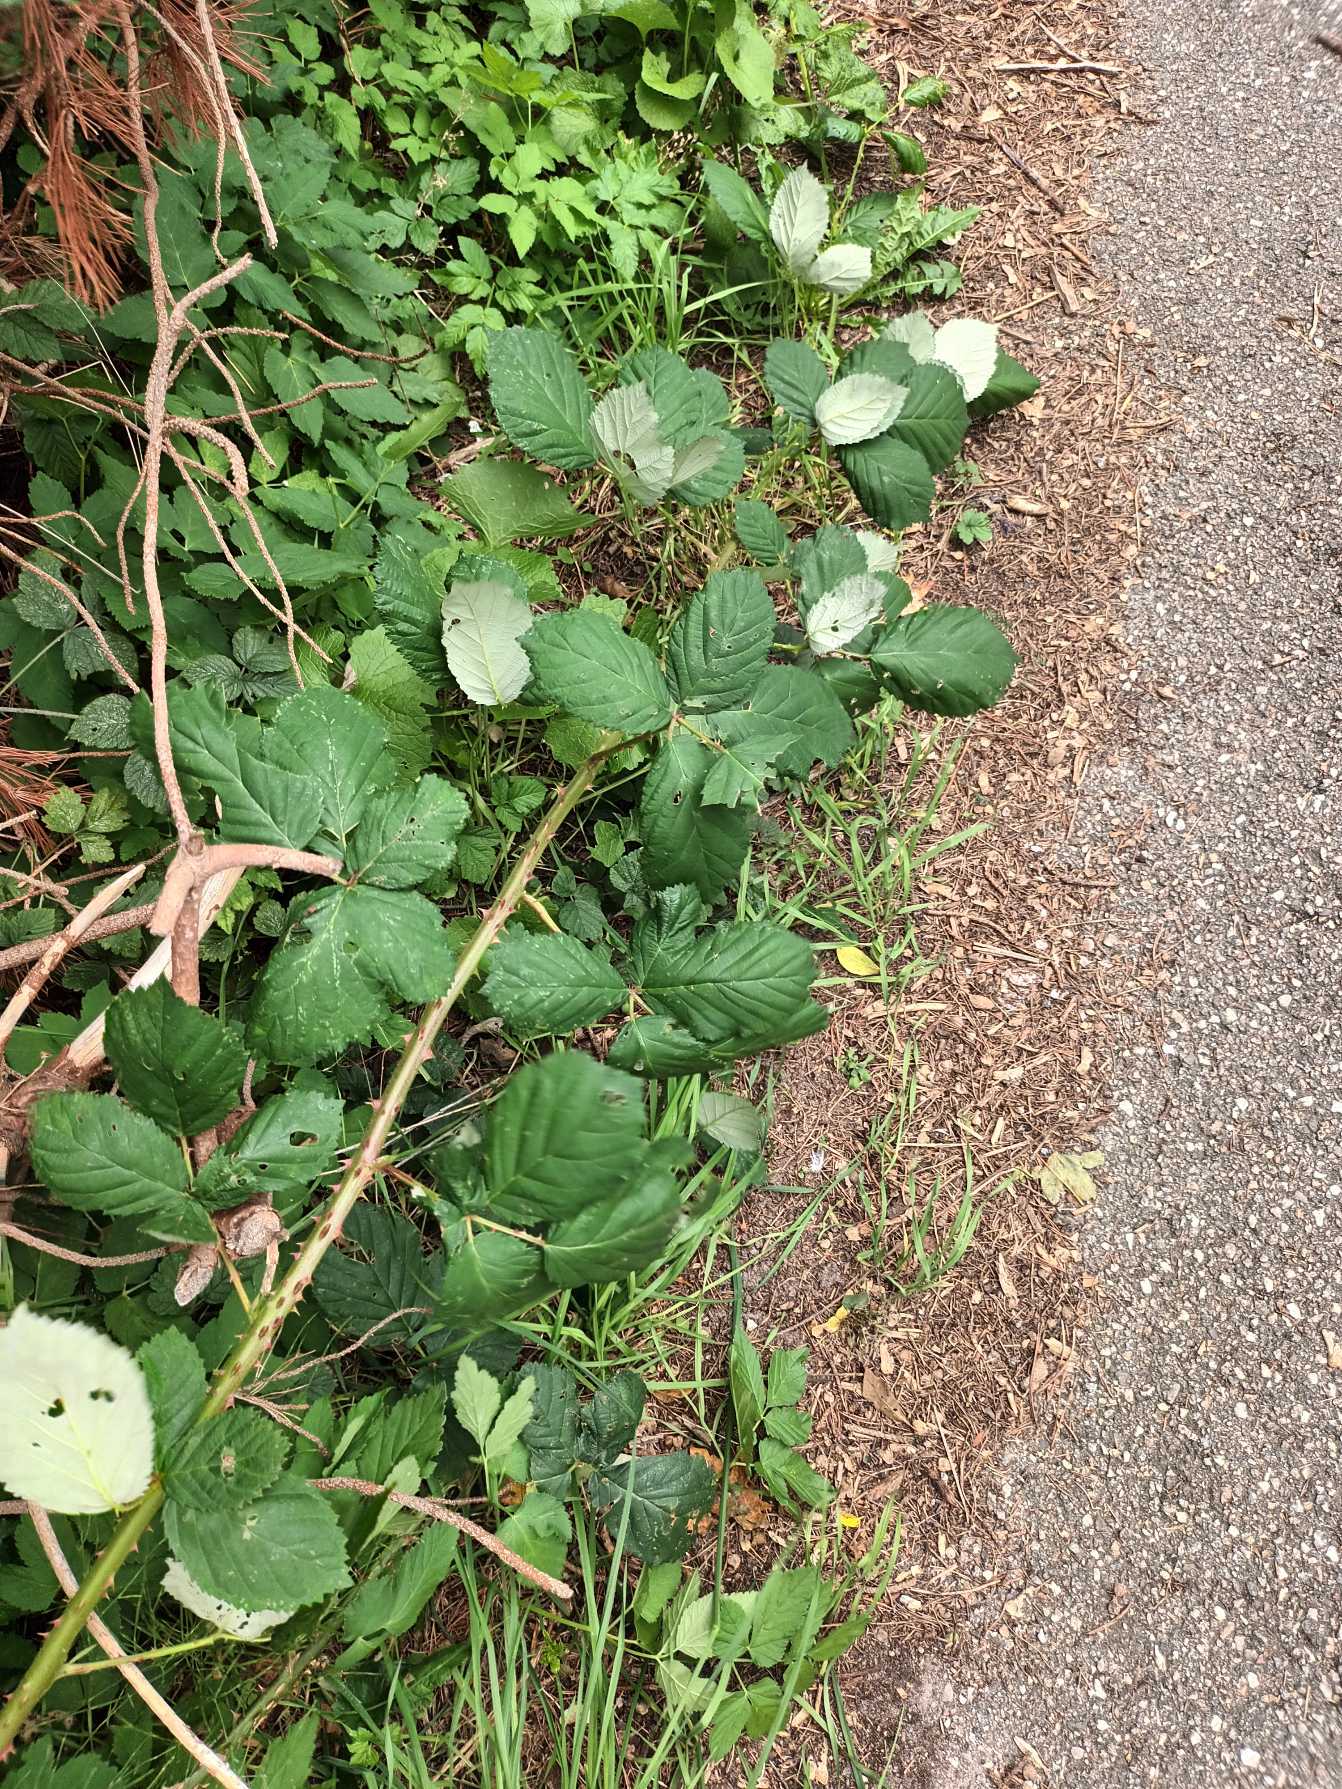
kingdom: Plantae
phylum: Tracheophyta
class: Magnoliopsida
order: Rosales
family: Rosaceae
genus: Rubus
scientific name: Rubus armeniacus
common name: Armensk brombær
